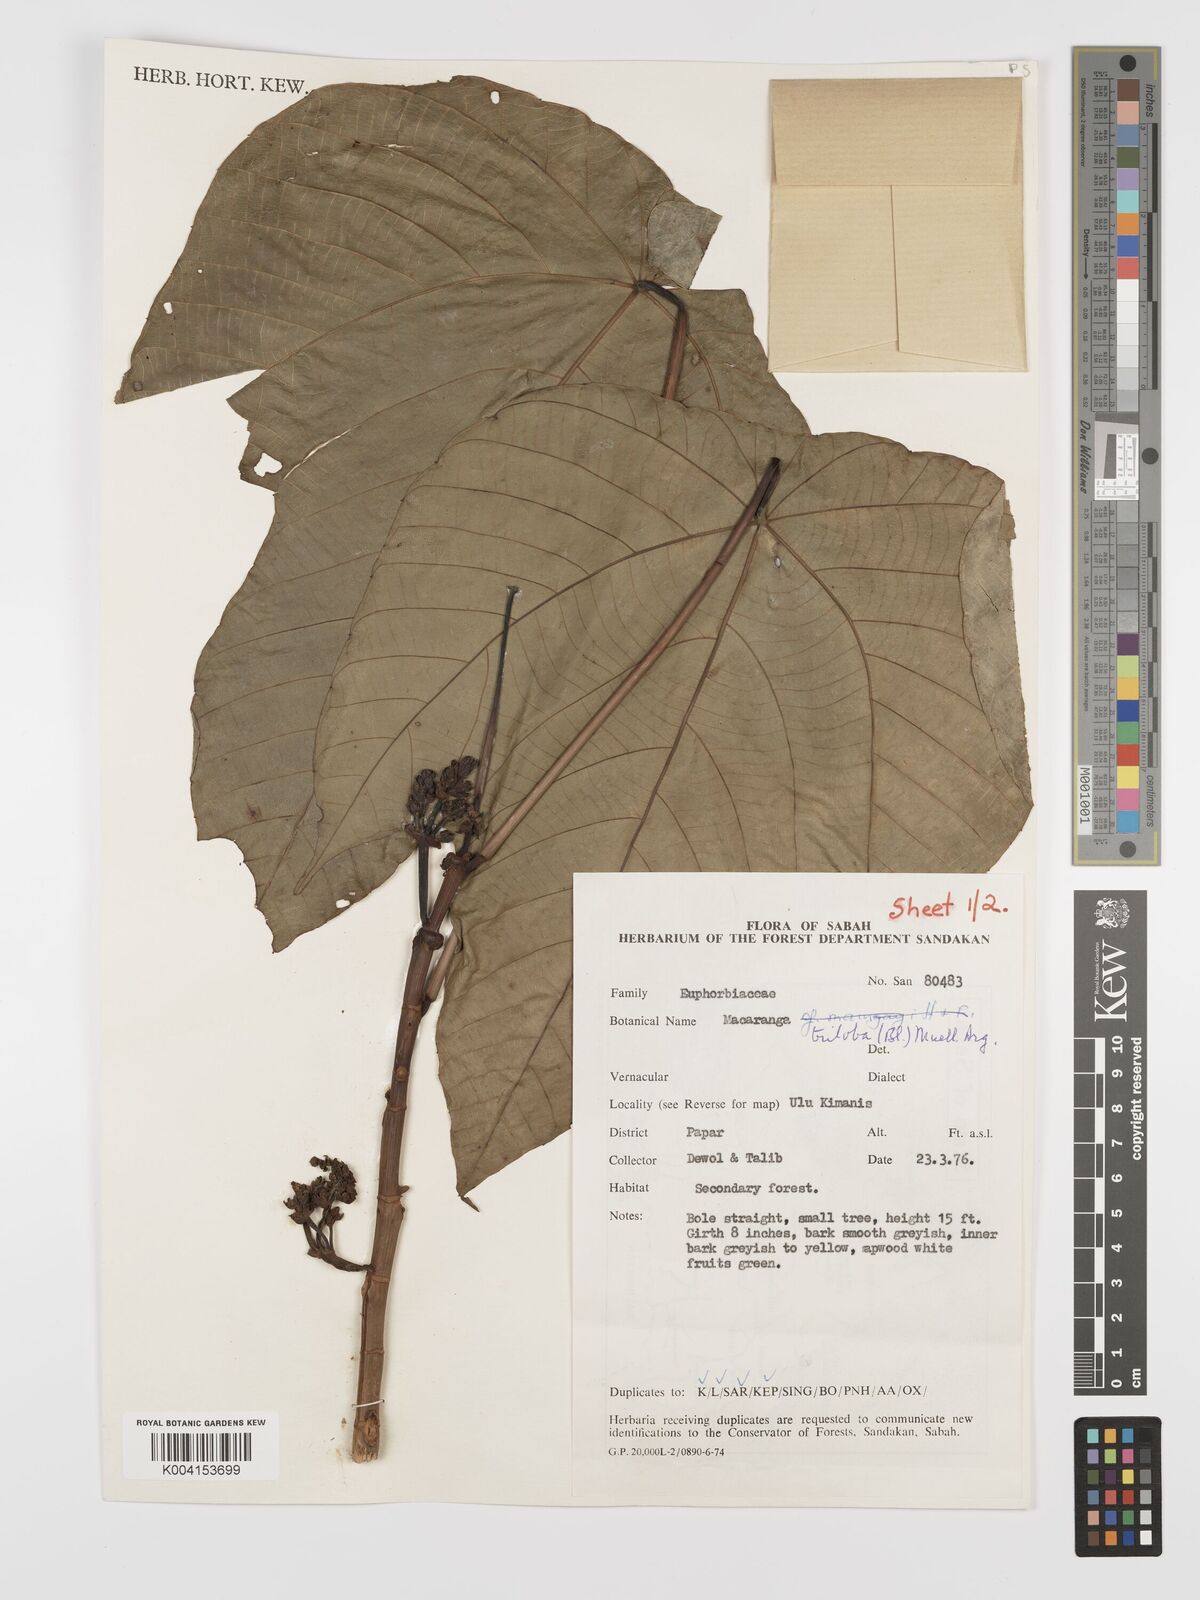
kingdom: Plantae
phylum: Tracheophyta
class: Magnoliopsida
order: Malpighiales
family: Euphorbiaceae
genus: Macaranga
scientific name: Macaranga triloba
